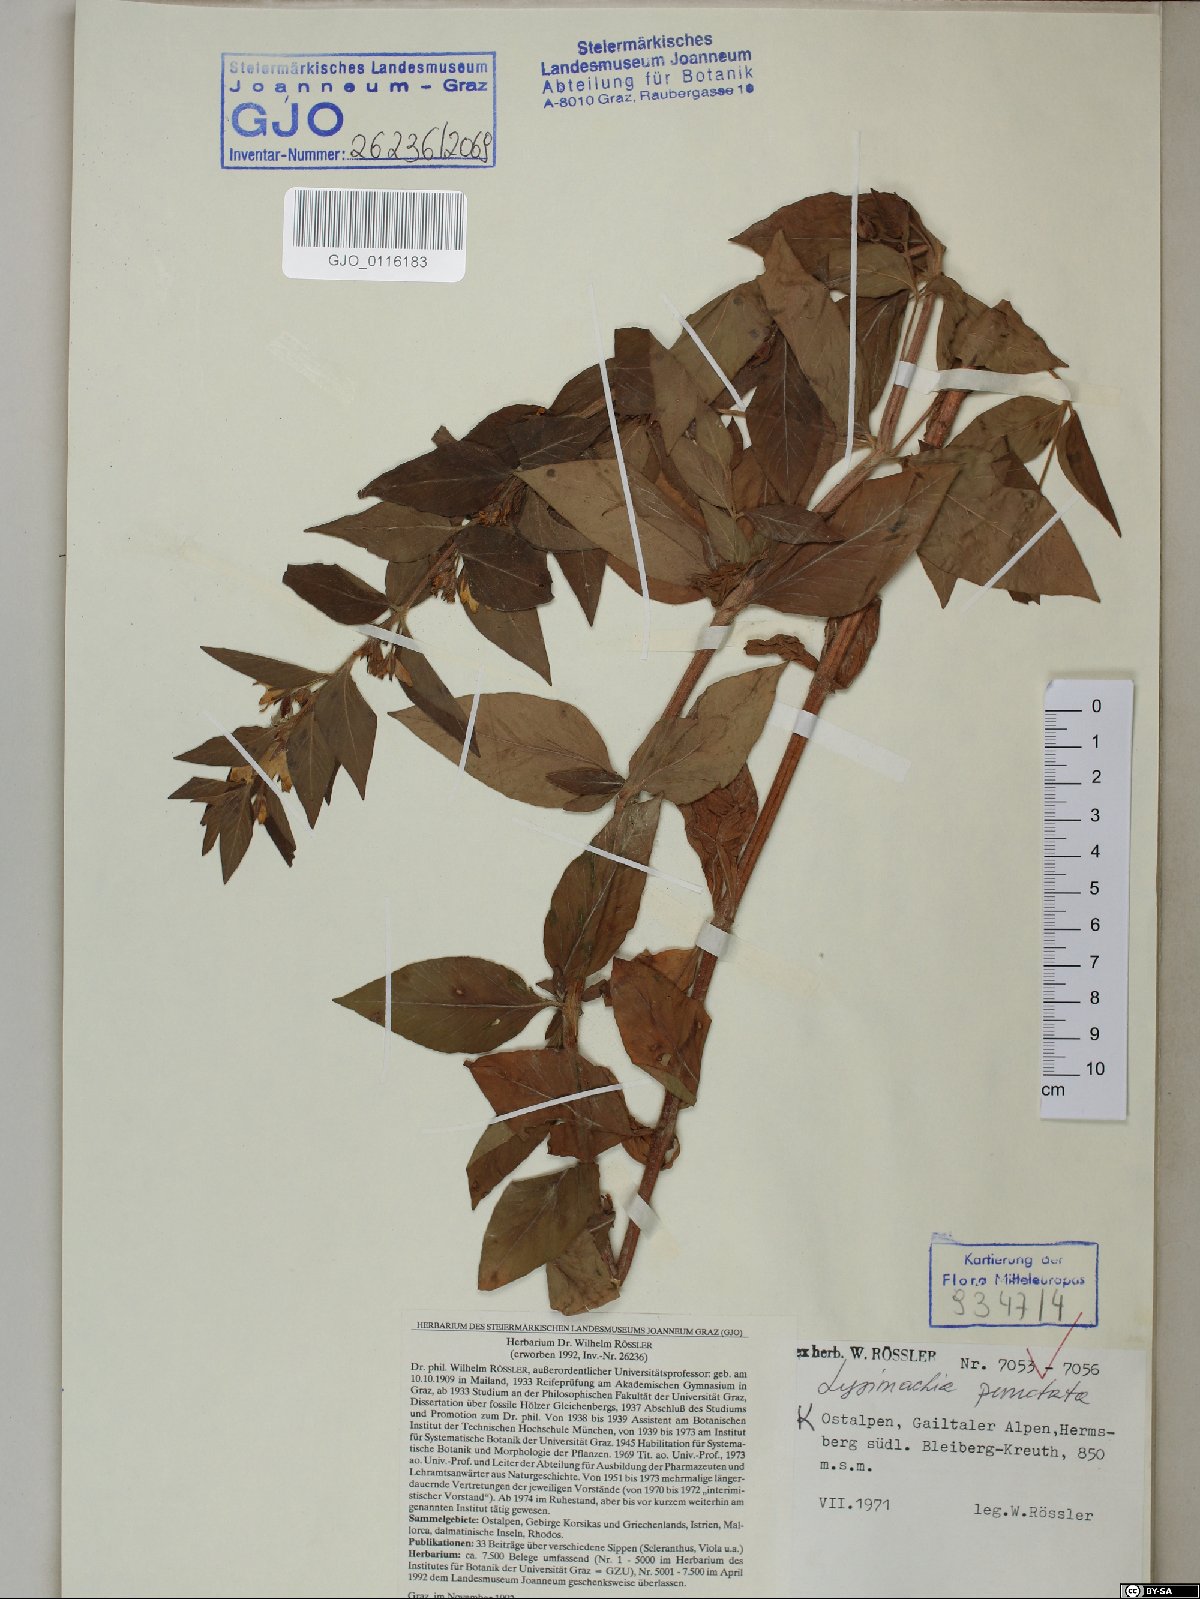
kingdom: Plantae
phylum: Tracheophyta
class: Magnoliopsida
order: Ericales
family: Primulaceae
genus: Lysimachia
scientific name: Lysimachia punctata
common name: Dotted loosestrife
